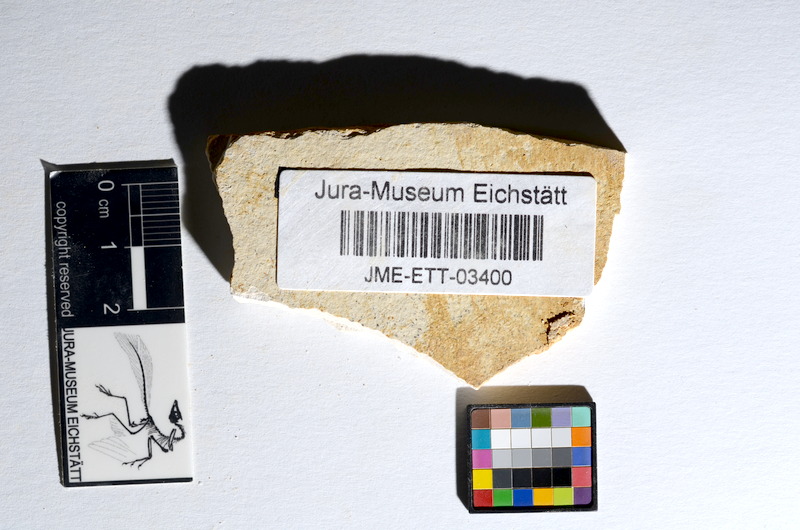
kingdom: Animalia
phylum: Chordata
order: Salmoniformes
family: Orthogonikleithridae
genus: Orthogonikleithrus
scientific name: Orthogonikleithrus hoelli
